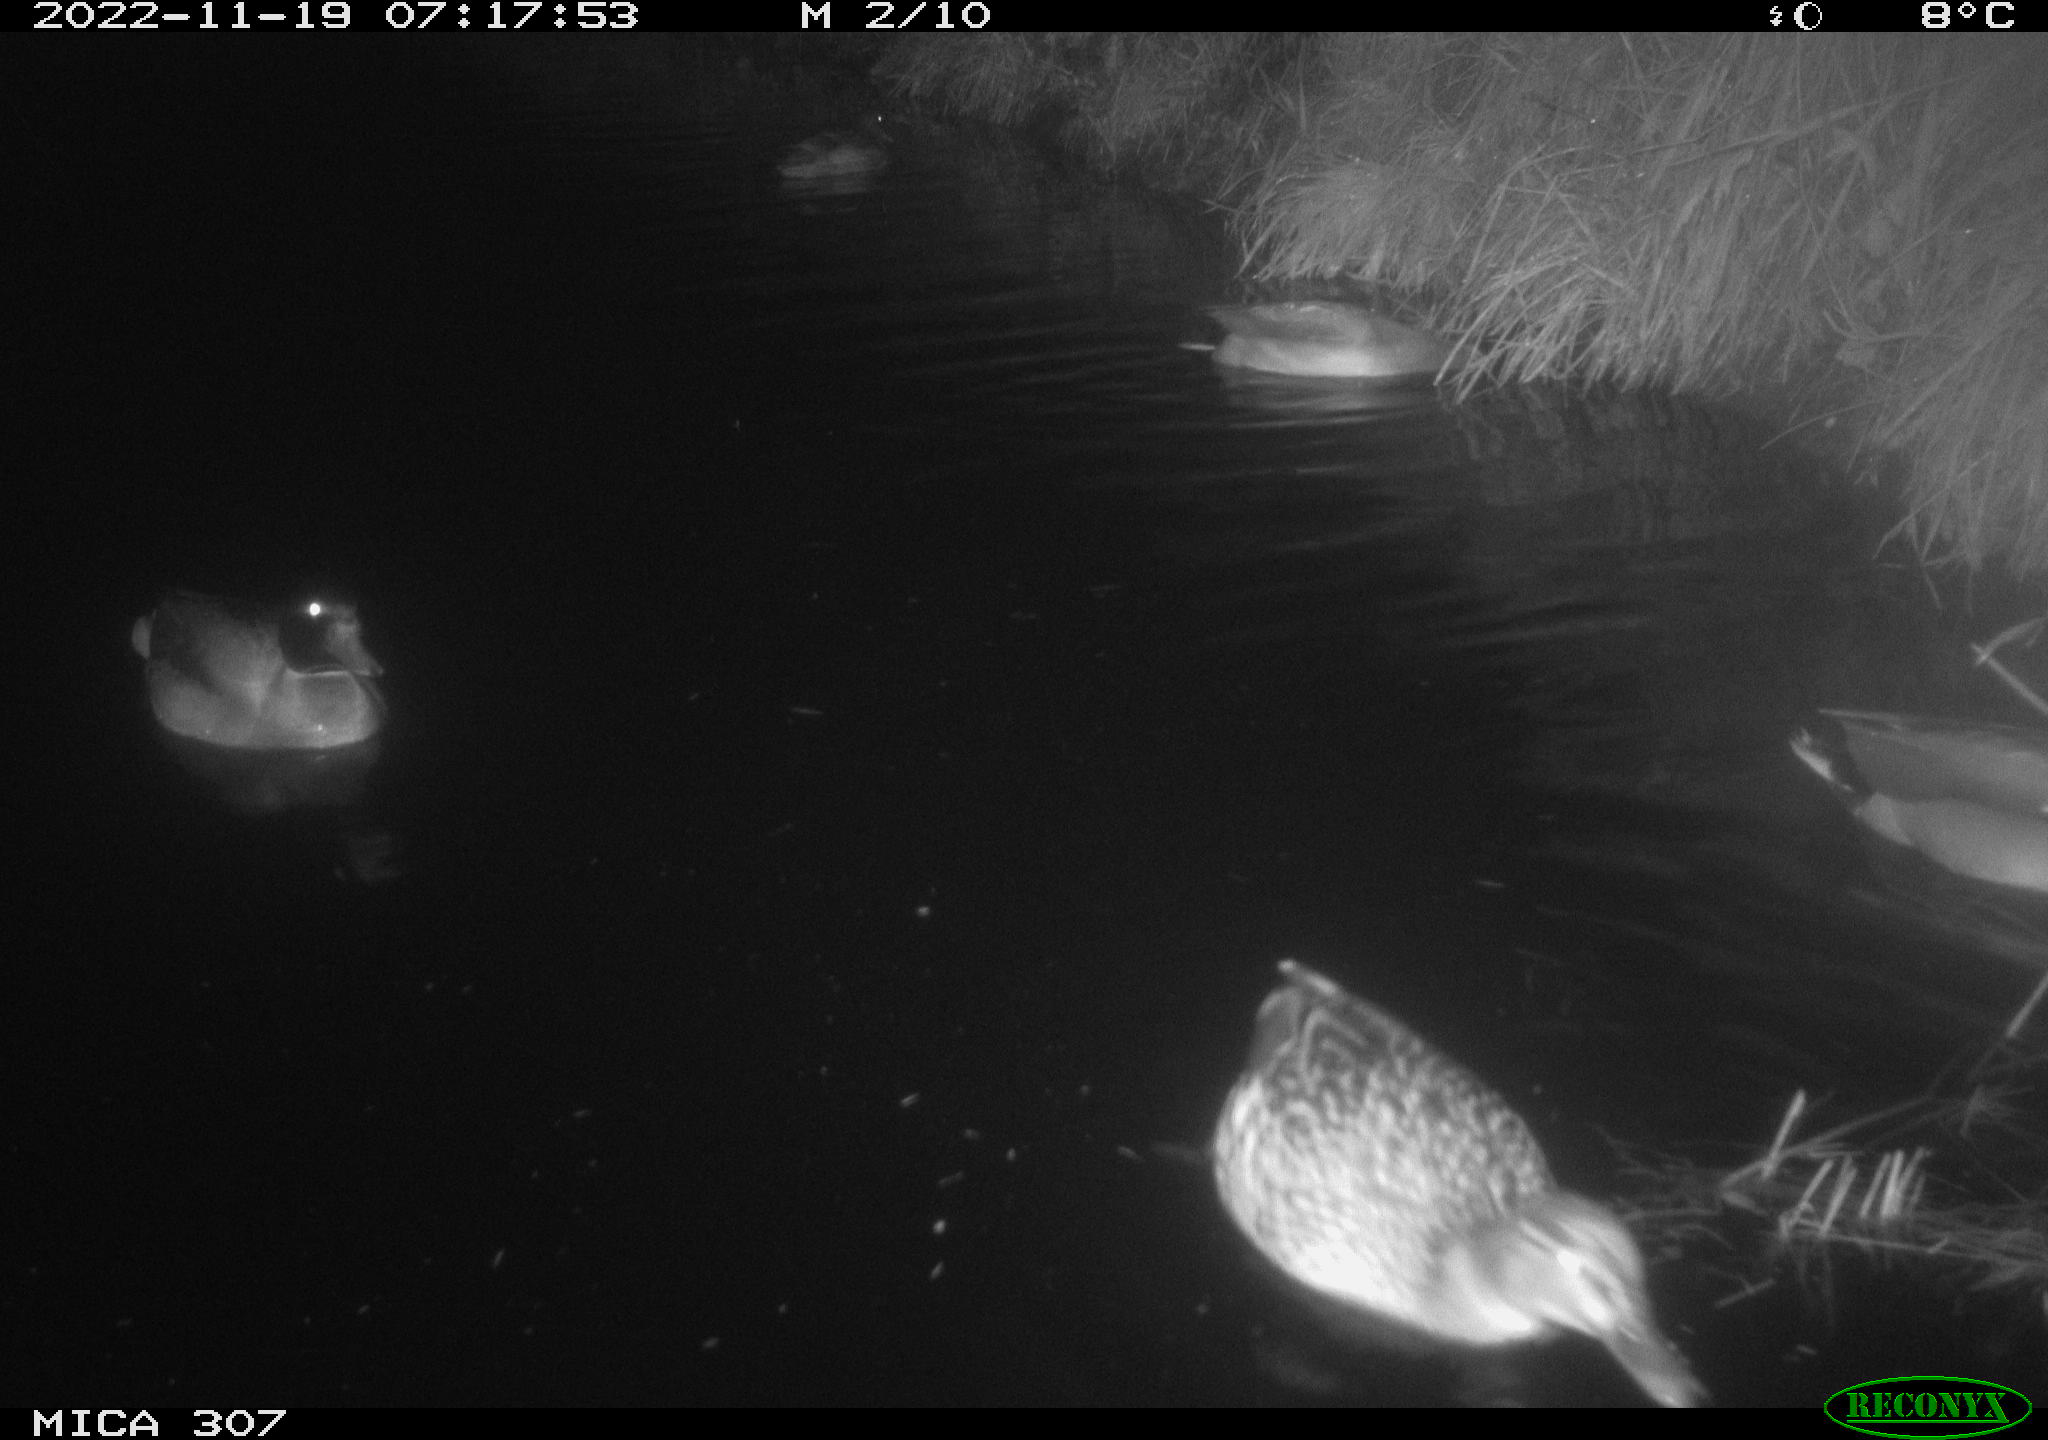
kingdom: Animalia
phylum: Chordata
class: Aves
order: Anseriformes
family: Anatidae
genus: Anas
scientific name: Anas
